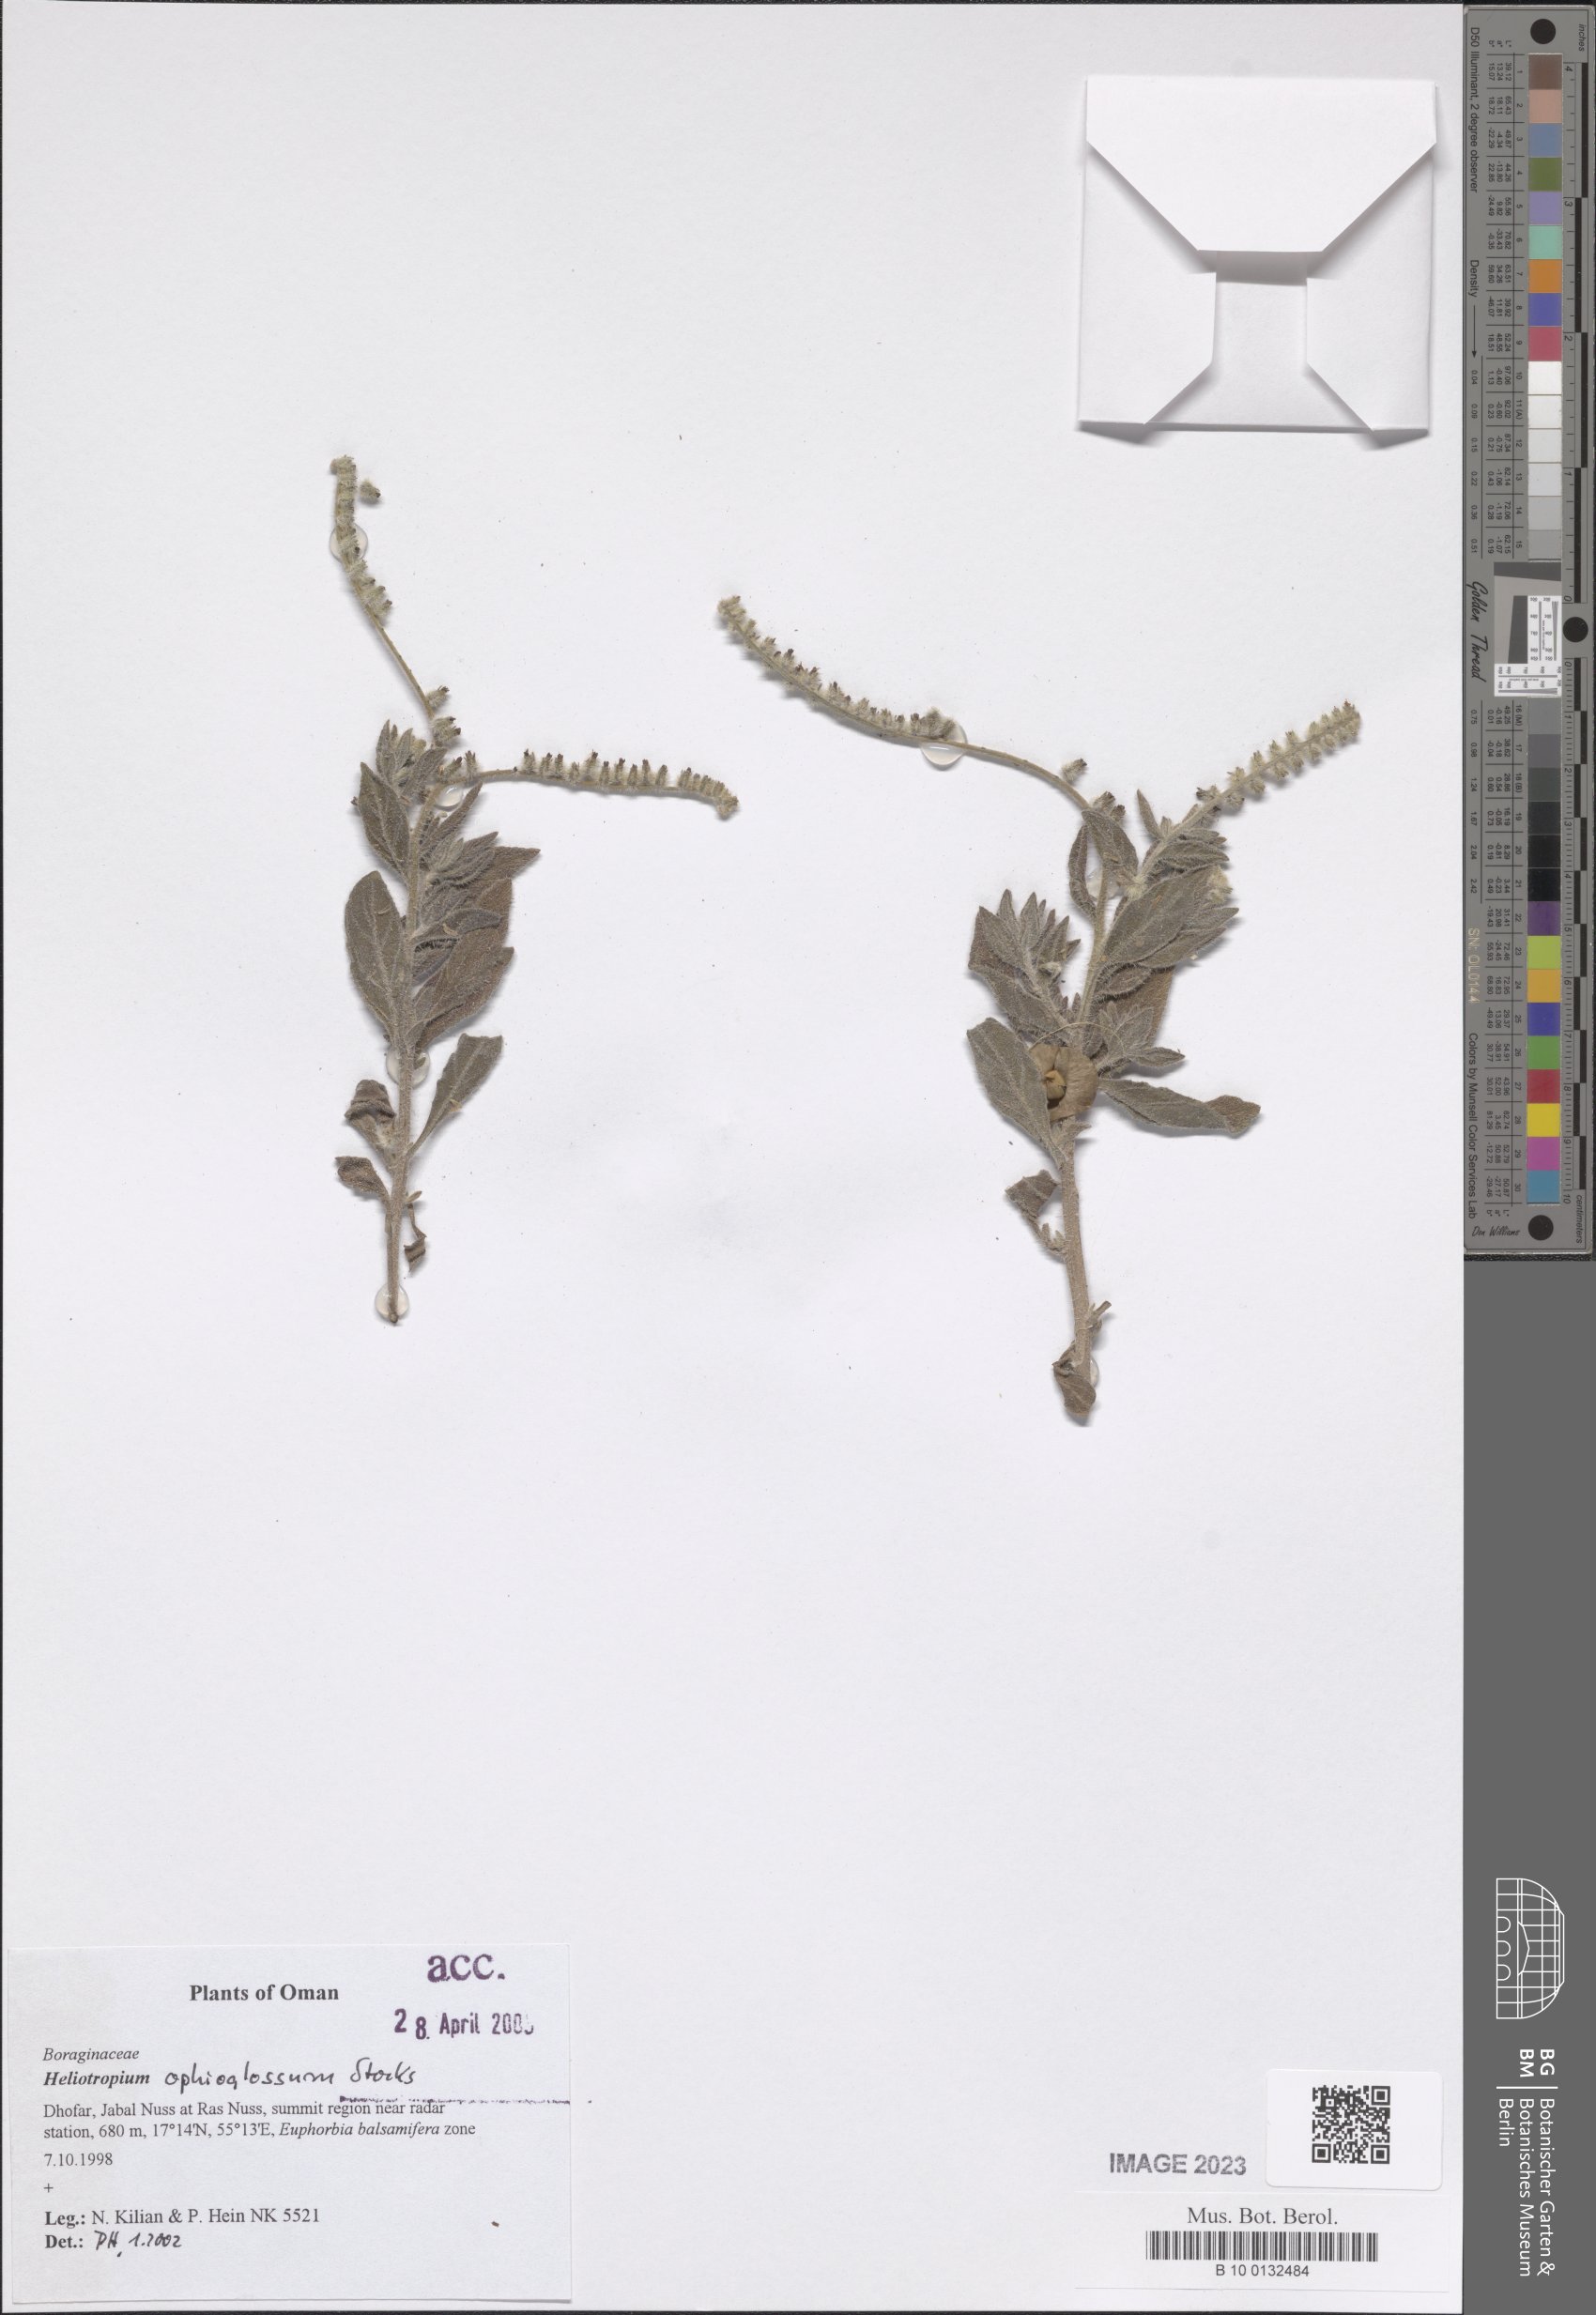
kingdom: Plantae
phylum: Tracheophyta
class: Magnoliopsida
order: Boraginales
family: Heliotropiaceae
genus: Heliotropium
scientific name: Heliotropium ophioglossum
